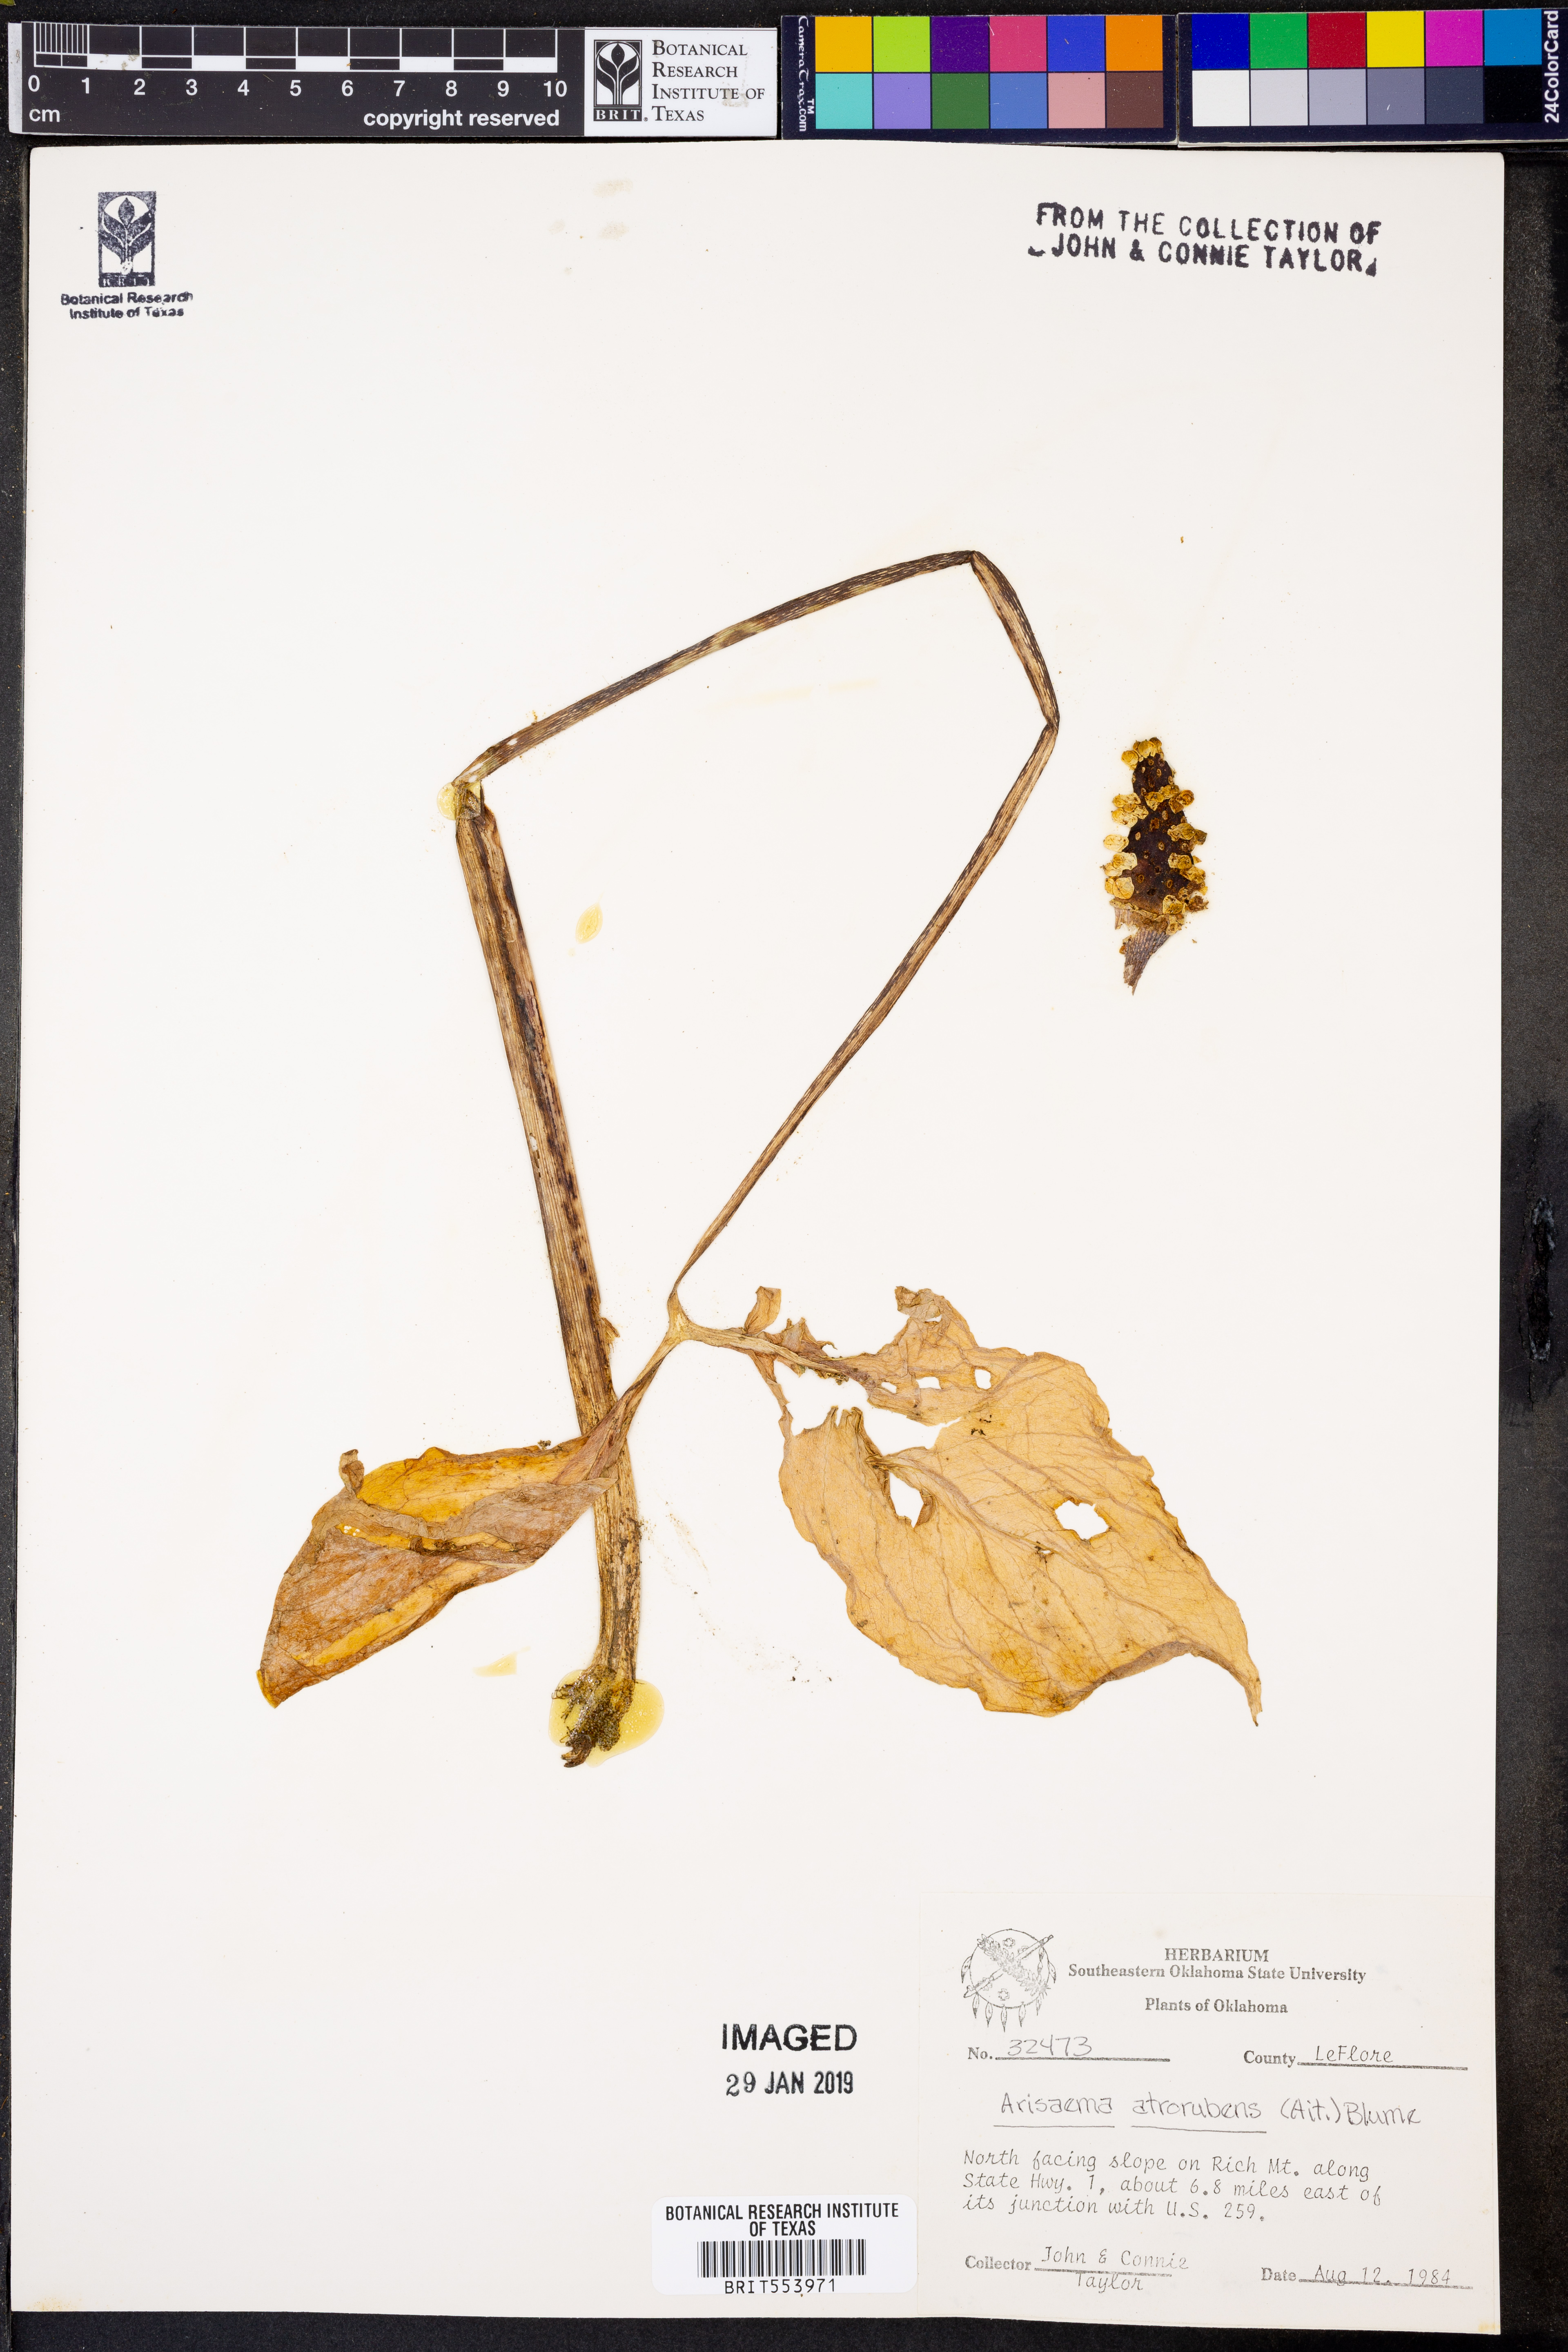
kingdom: Plantae
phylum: Tracheophyta
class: Liliopsida
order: Alismatales
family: Araceae
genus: Arisaema
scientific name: Arisaema triphyllum
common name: Jack-in-the-pulpit
